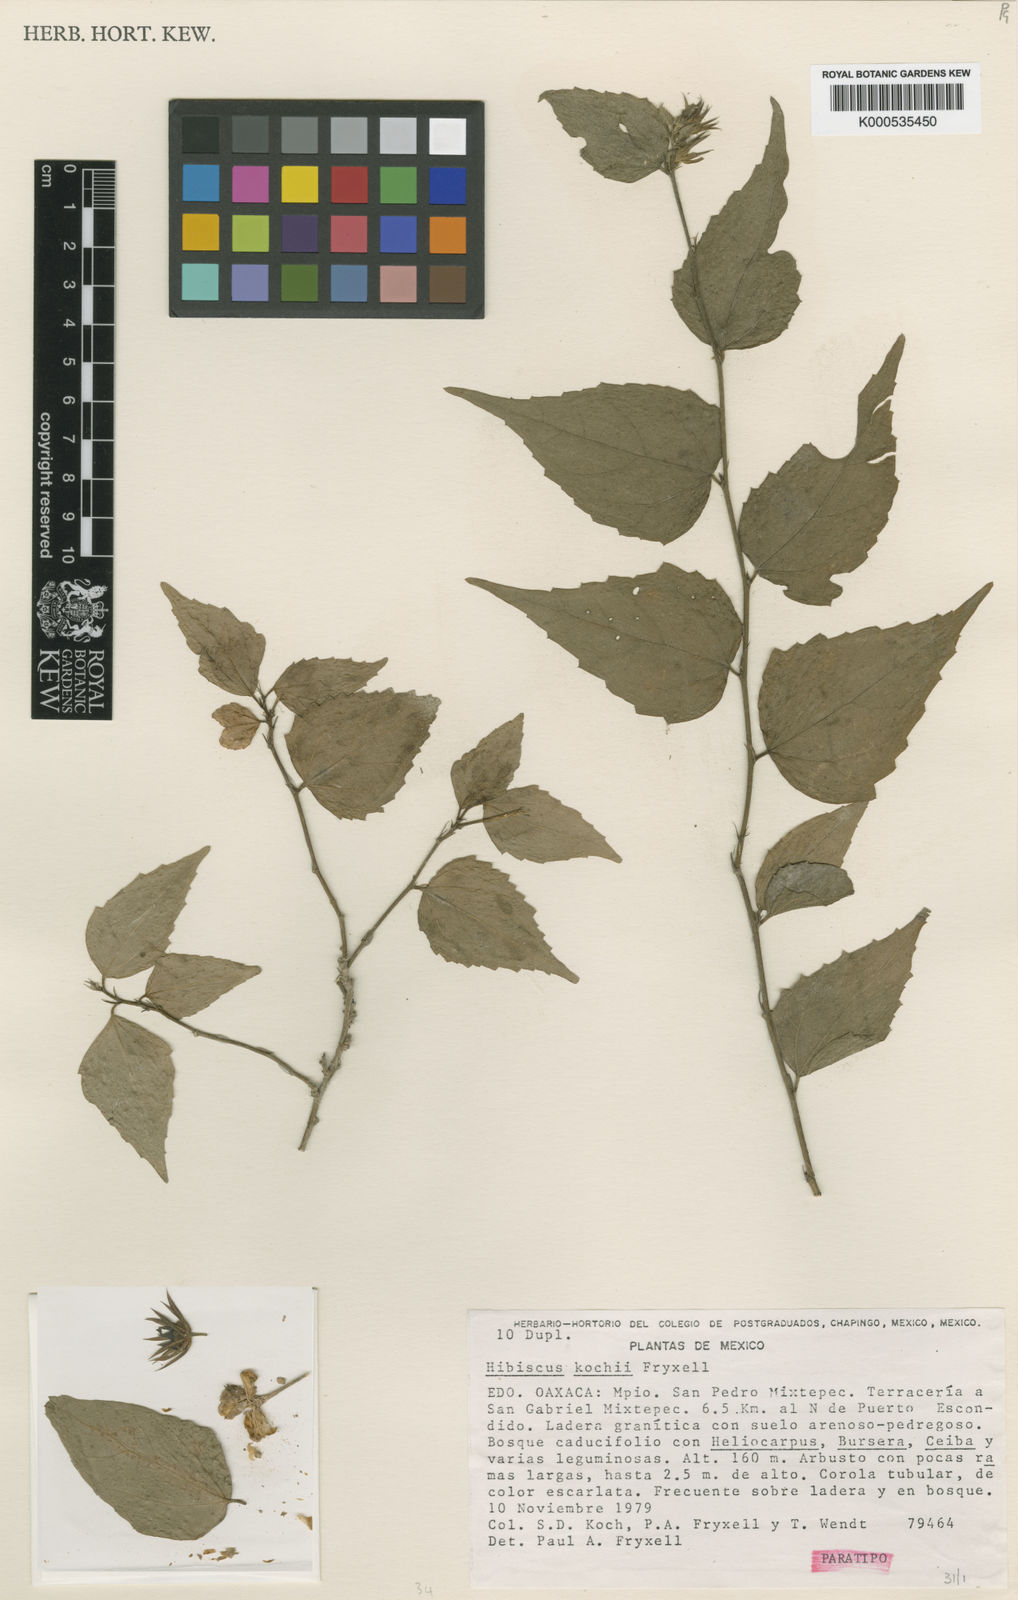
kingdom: Plantae
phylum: Tracheophyta
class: Magnoliopsida
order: Malvales
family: Malvaceae
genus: Hibiscus
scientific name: Hibiscus kochii
